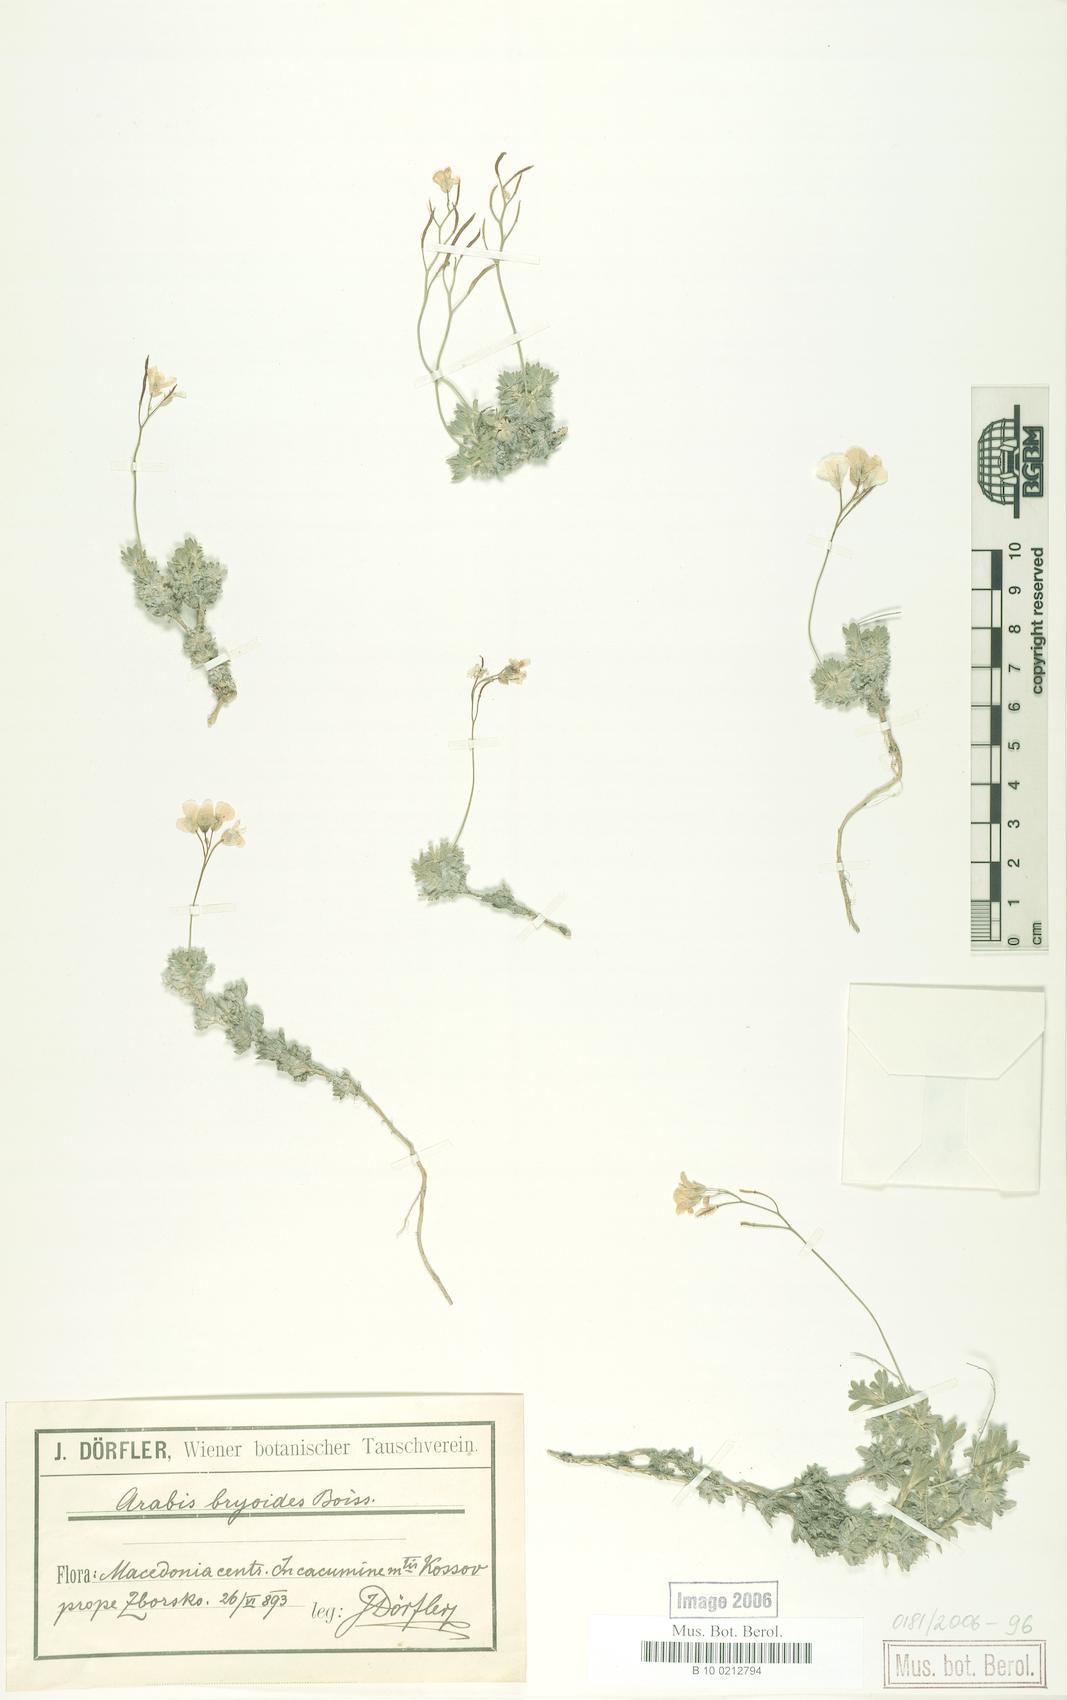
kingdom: Plantae
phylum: Tracheophyta
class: Magnoliopsida
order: Brassicales
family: Brassicaceae
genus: Arabis
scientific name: Arabis bryoides
